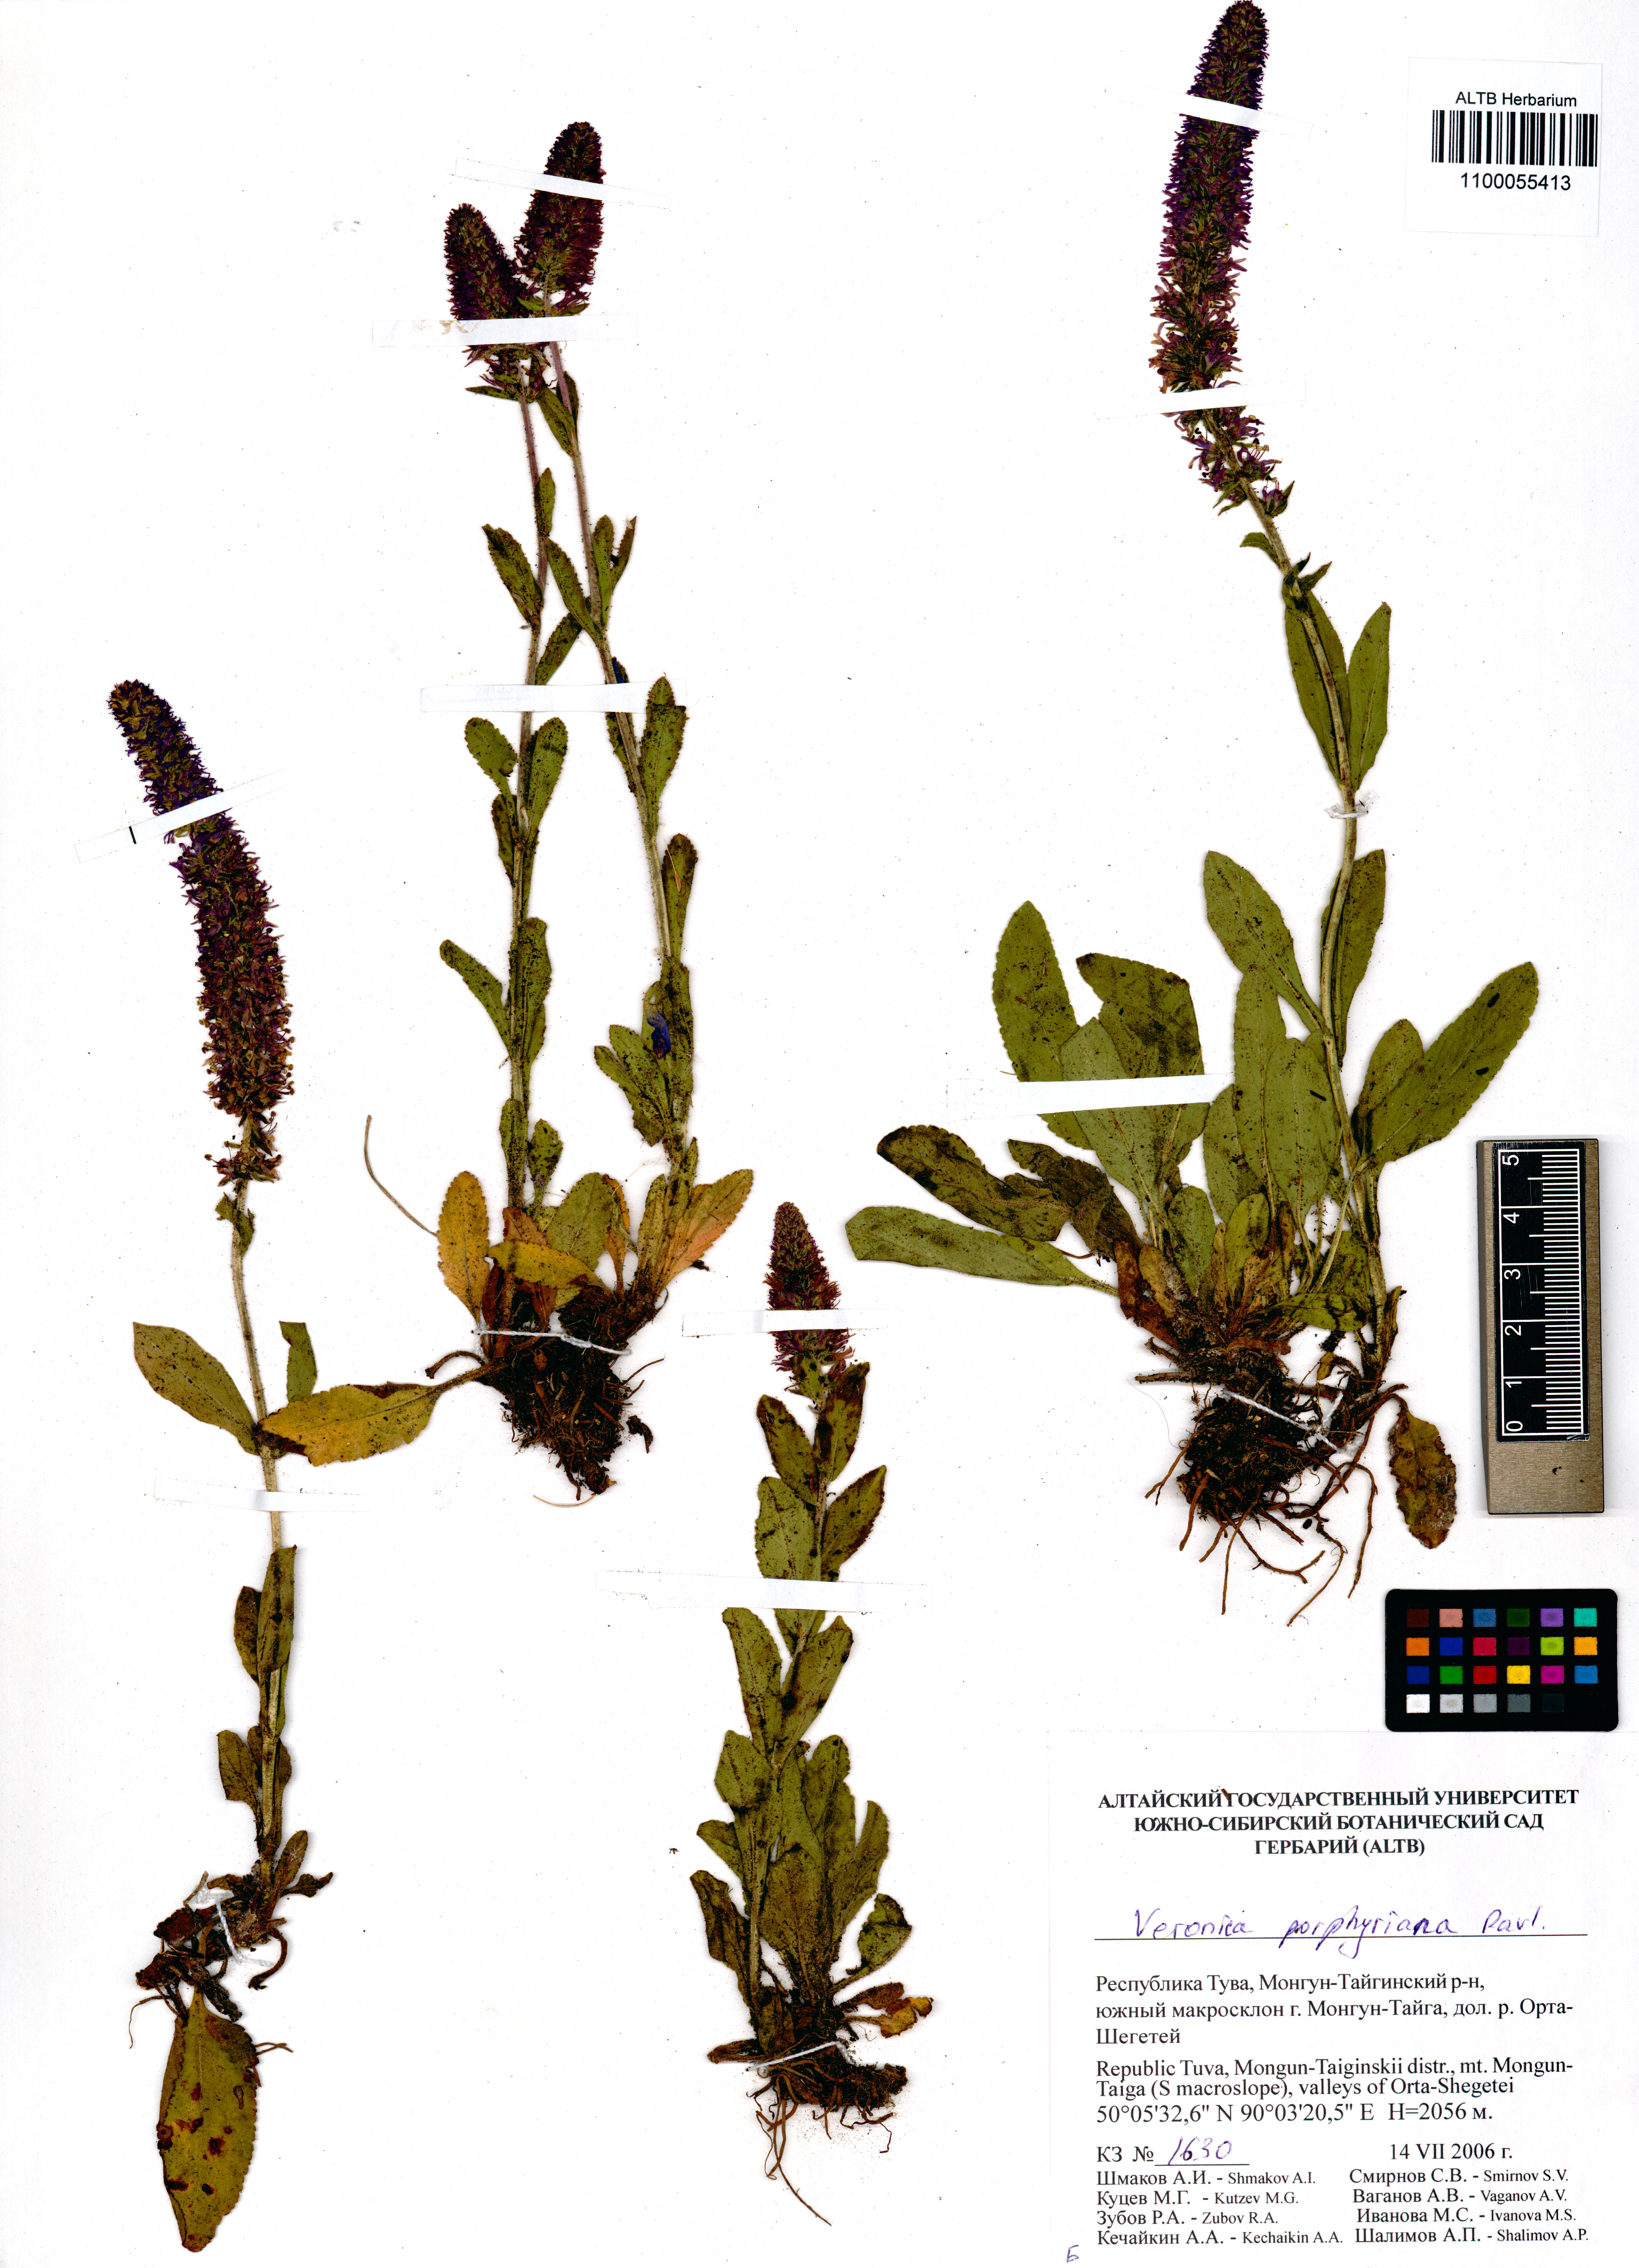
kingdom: Plantae
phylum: Tracheophyta
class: Magnoliopsida
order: Lamiales
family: Plantaginaceae
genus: Veronica
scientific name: Veronica porphyriana
